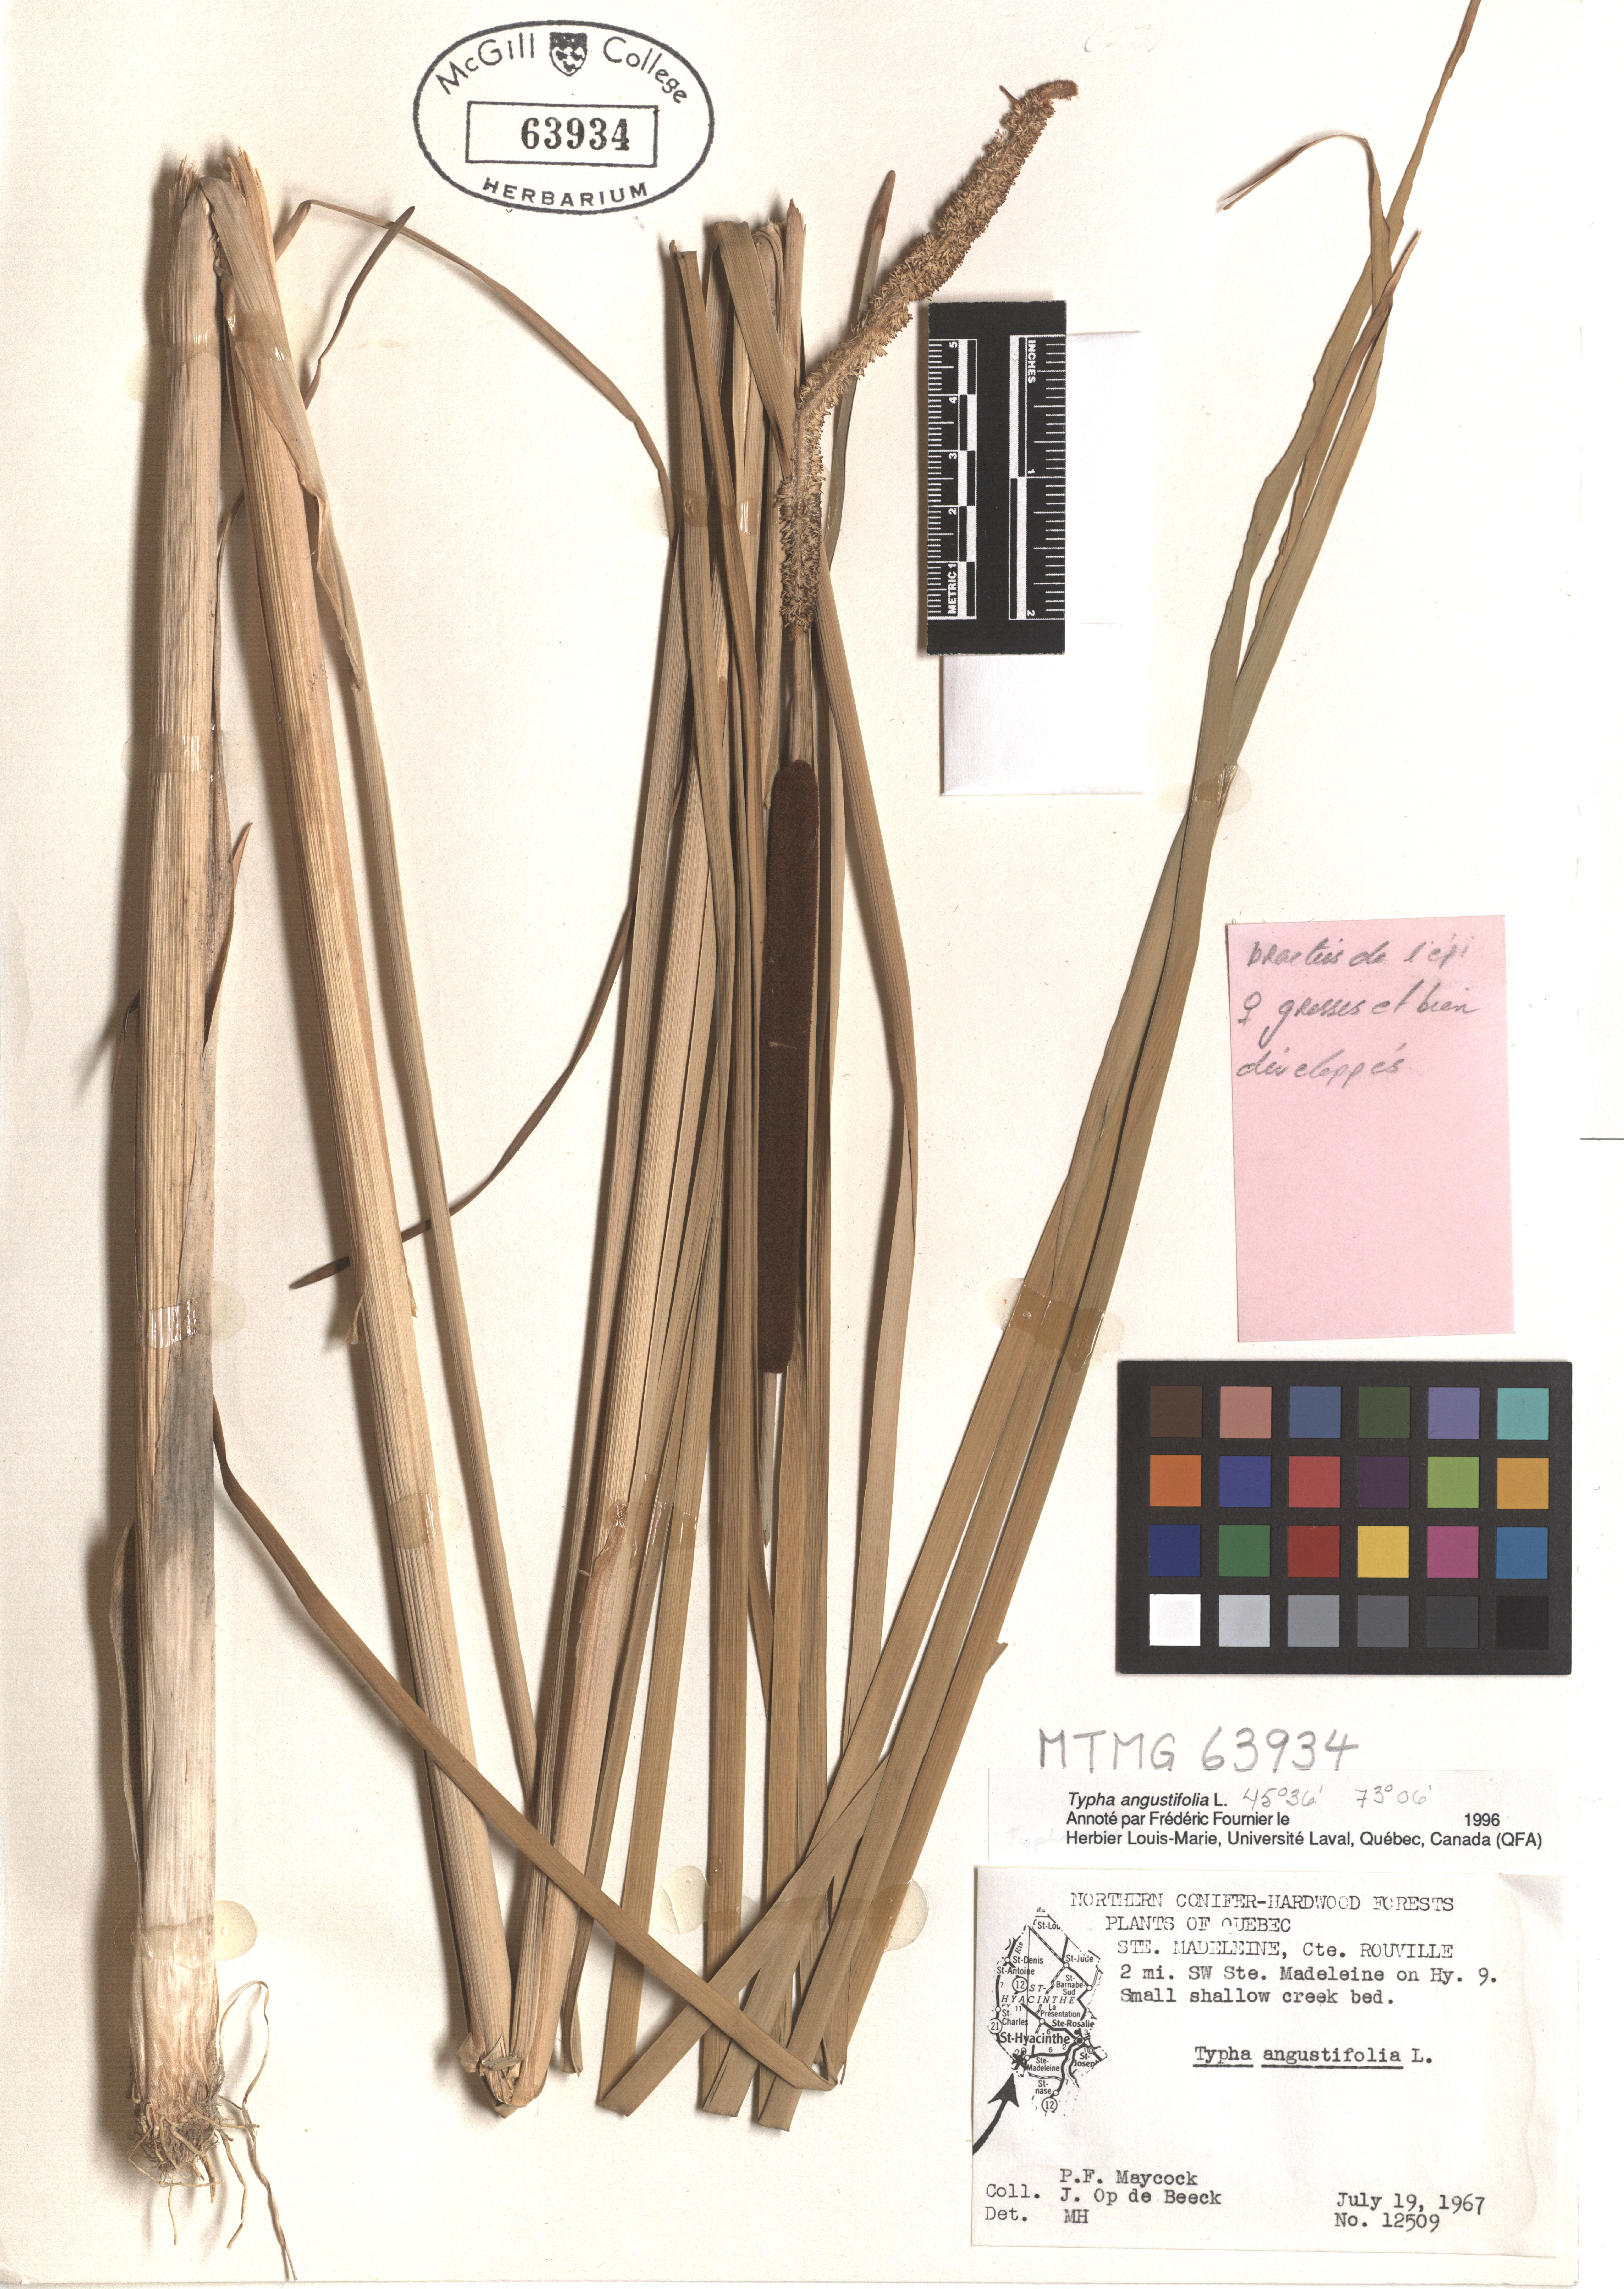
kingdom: Plantae
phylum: Tracheophyta
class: Liliopsida
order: Poales
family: Typhaceae
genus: Typha
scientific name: Typha angustifolia
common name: Lesser bulrush
